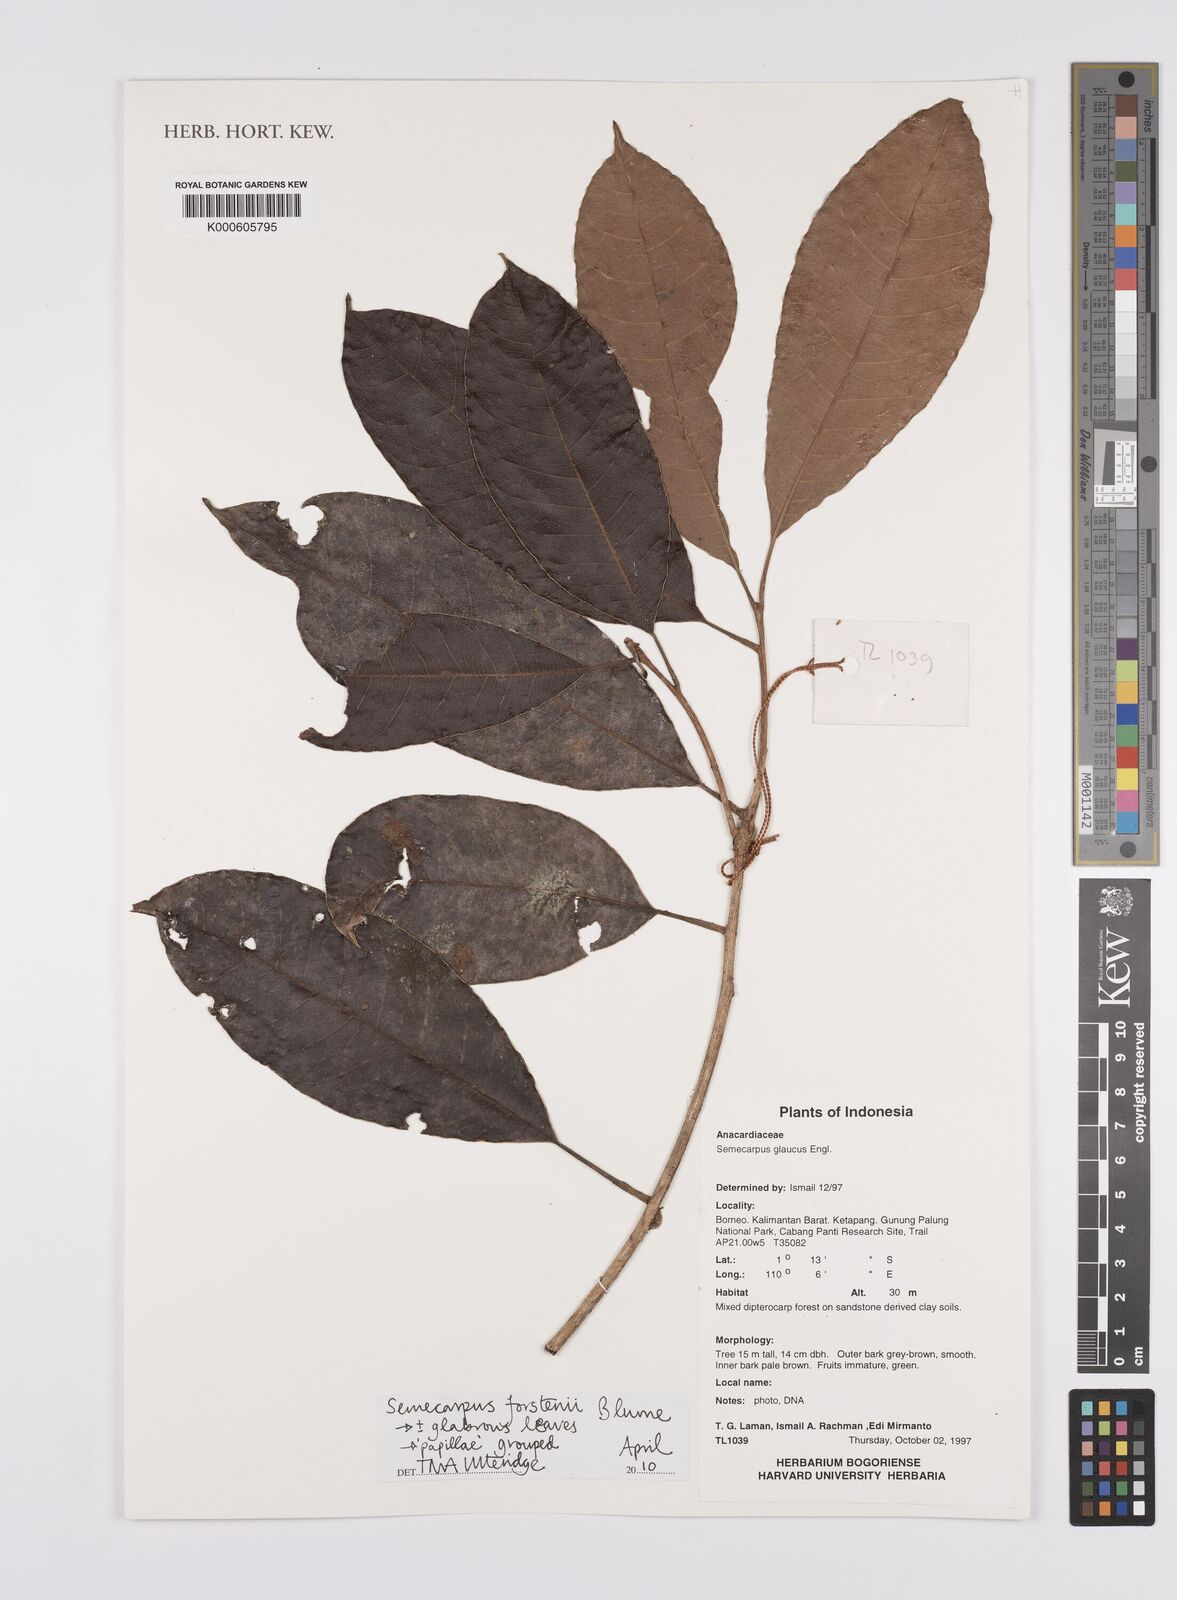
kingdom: Plantae
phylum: Tracheophyta
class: Magnoliopsida
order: Sapindales
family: Anacardiaceae
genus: Semecarpus
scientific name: Semecarpus forstenii
